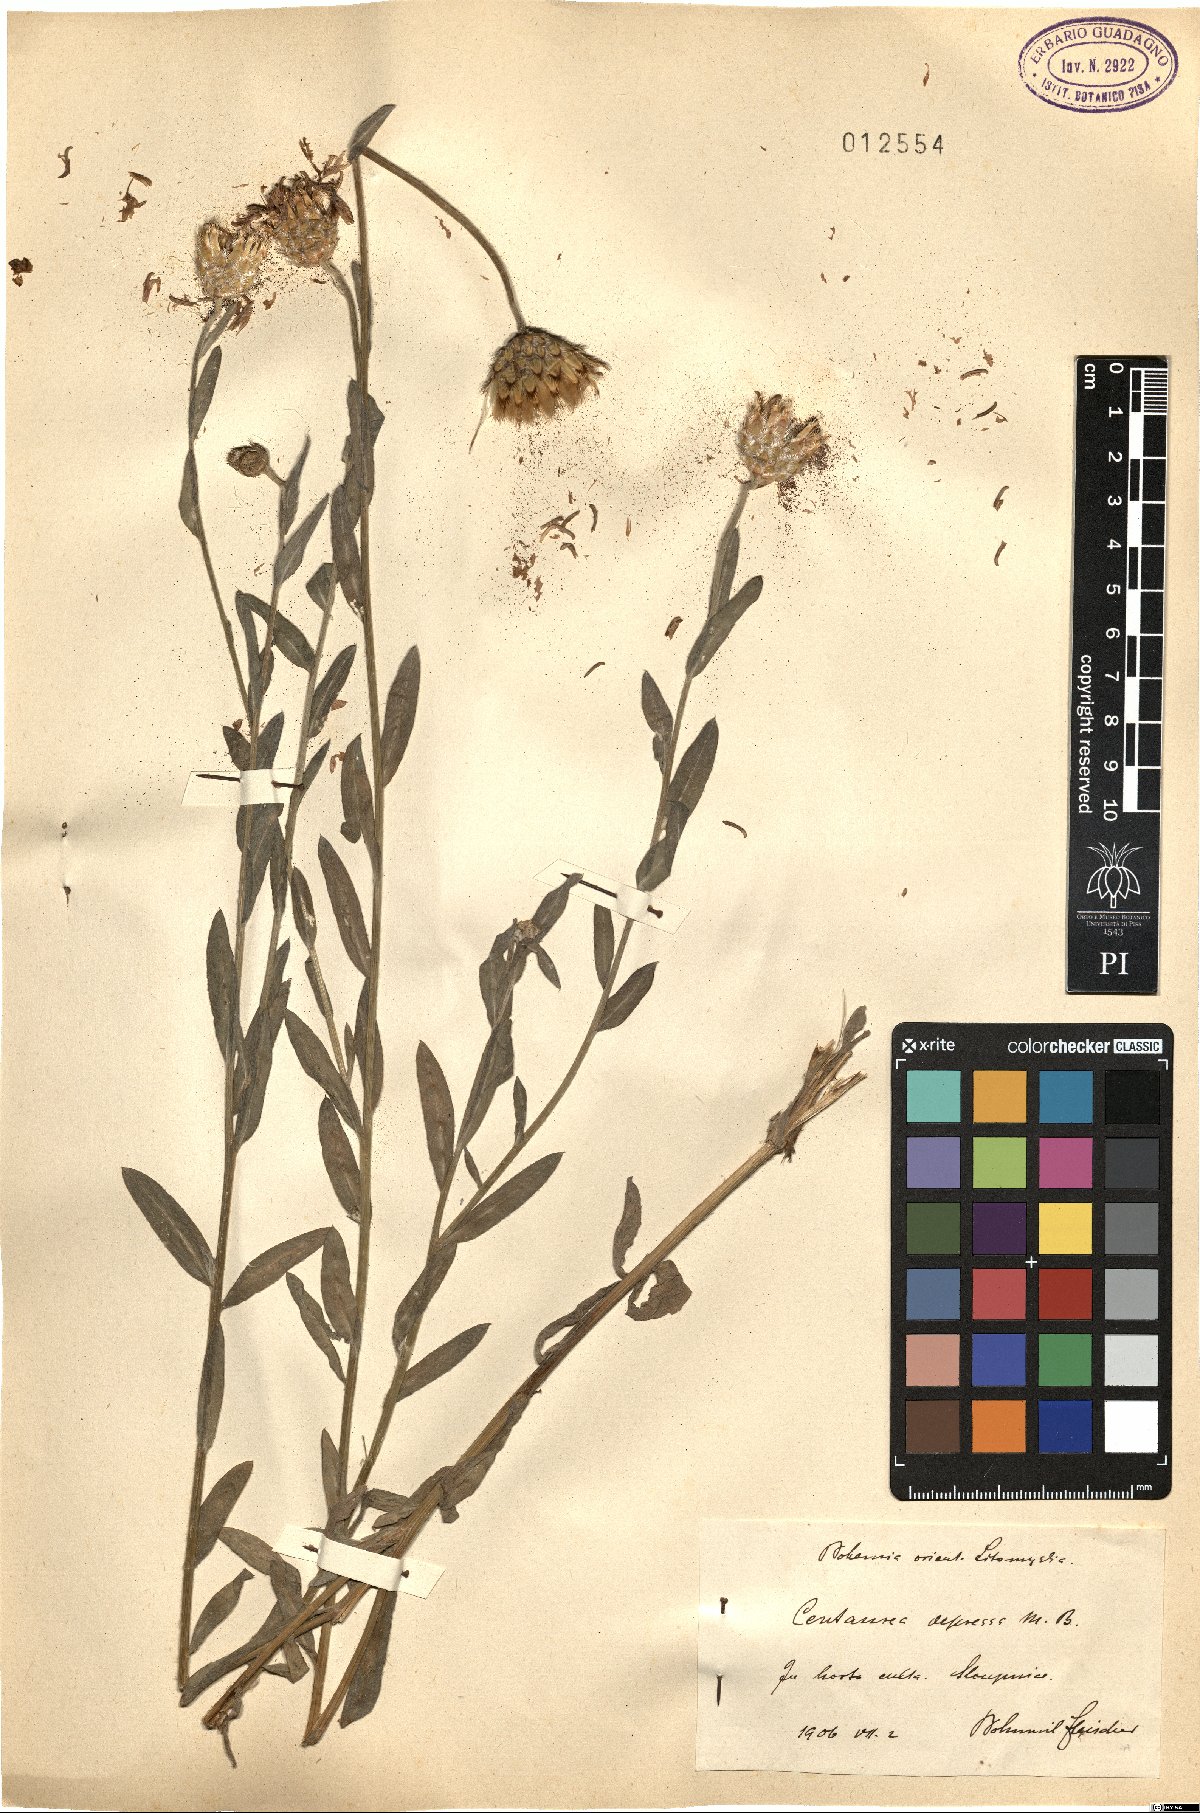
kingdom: Plantae
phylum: Tracheophyta
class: Magnoliopsida
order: Asterales
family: Asteraceae
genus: Centaurea
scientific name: Centaurea depressa
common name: Iranian knapweed
